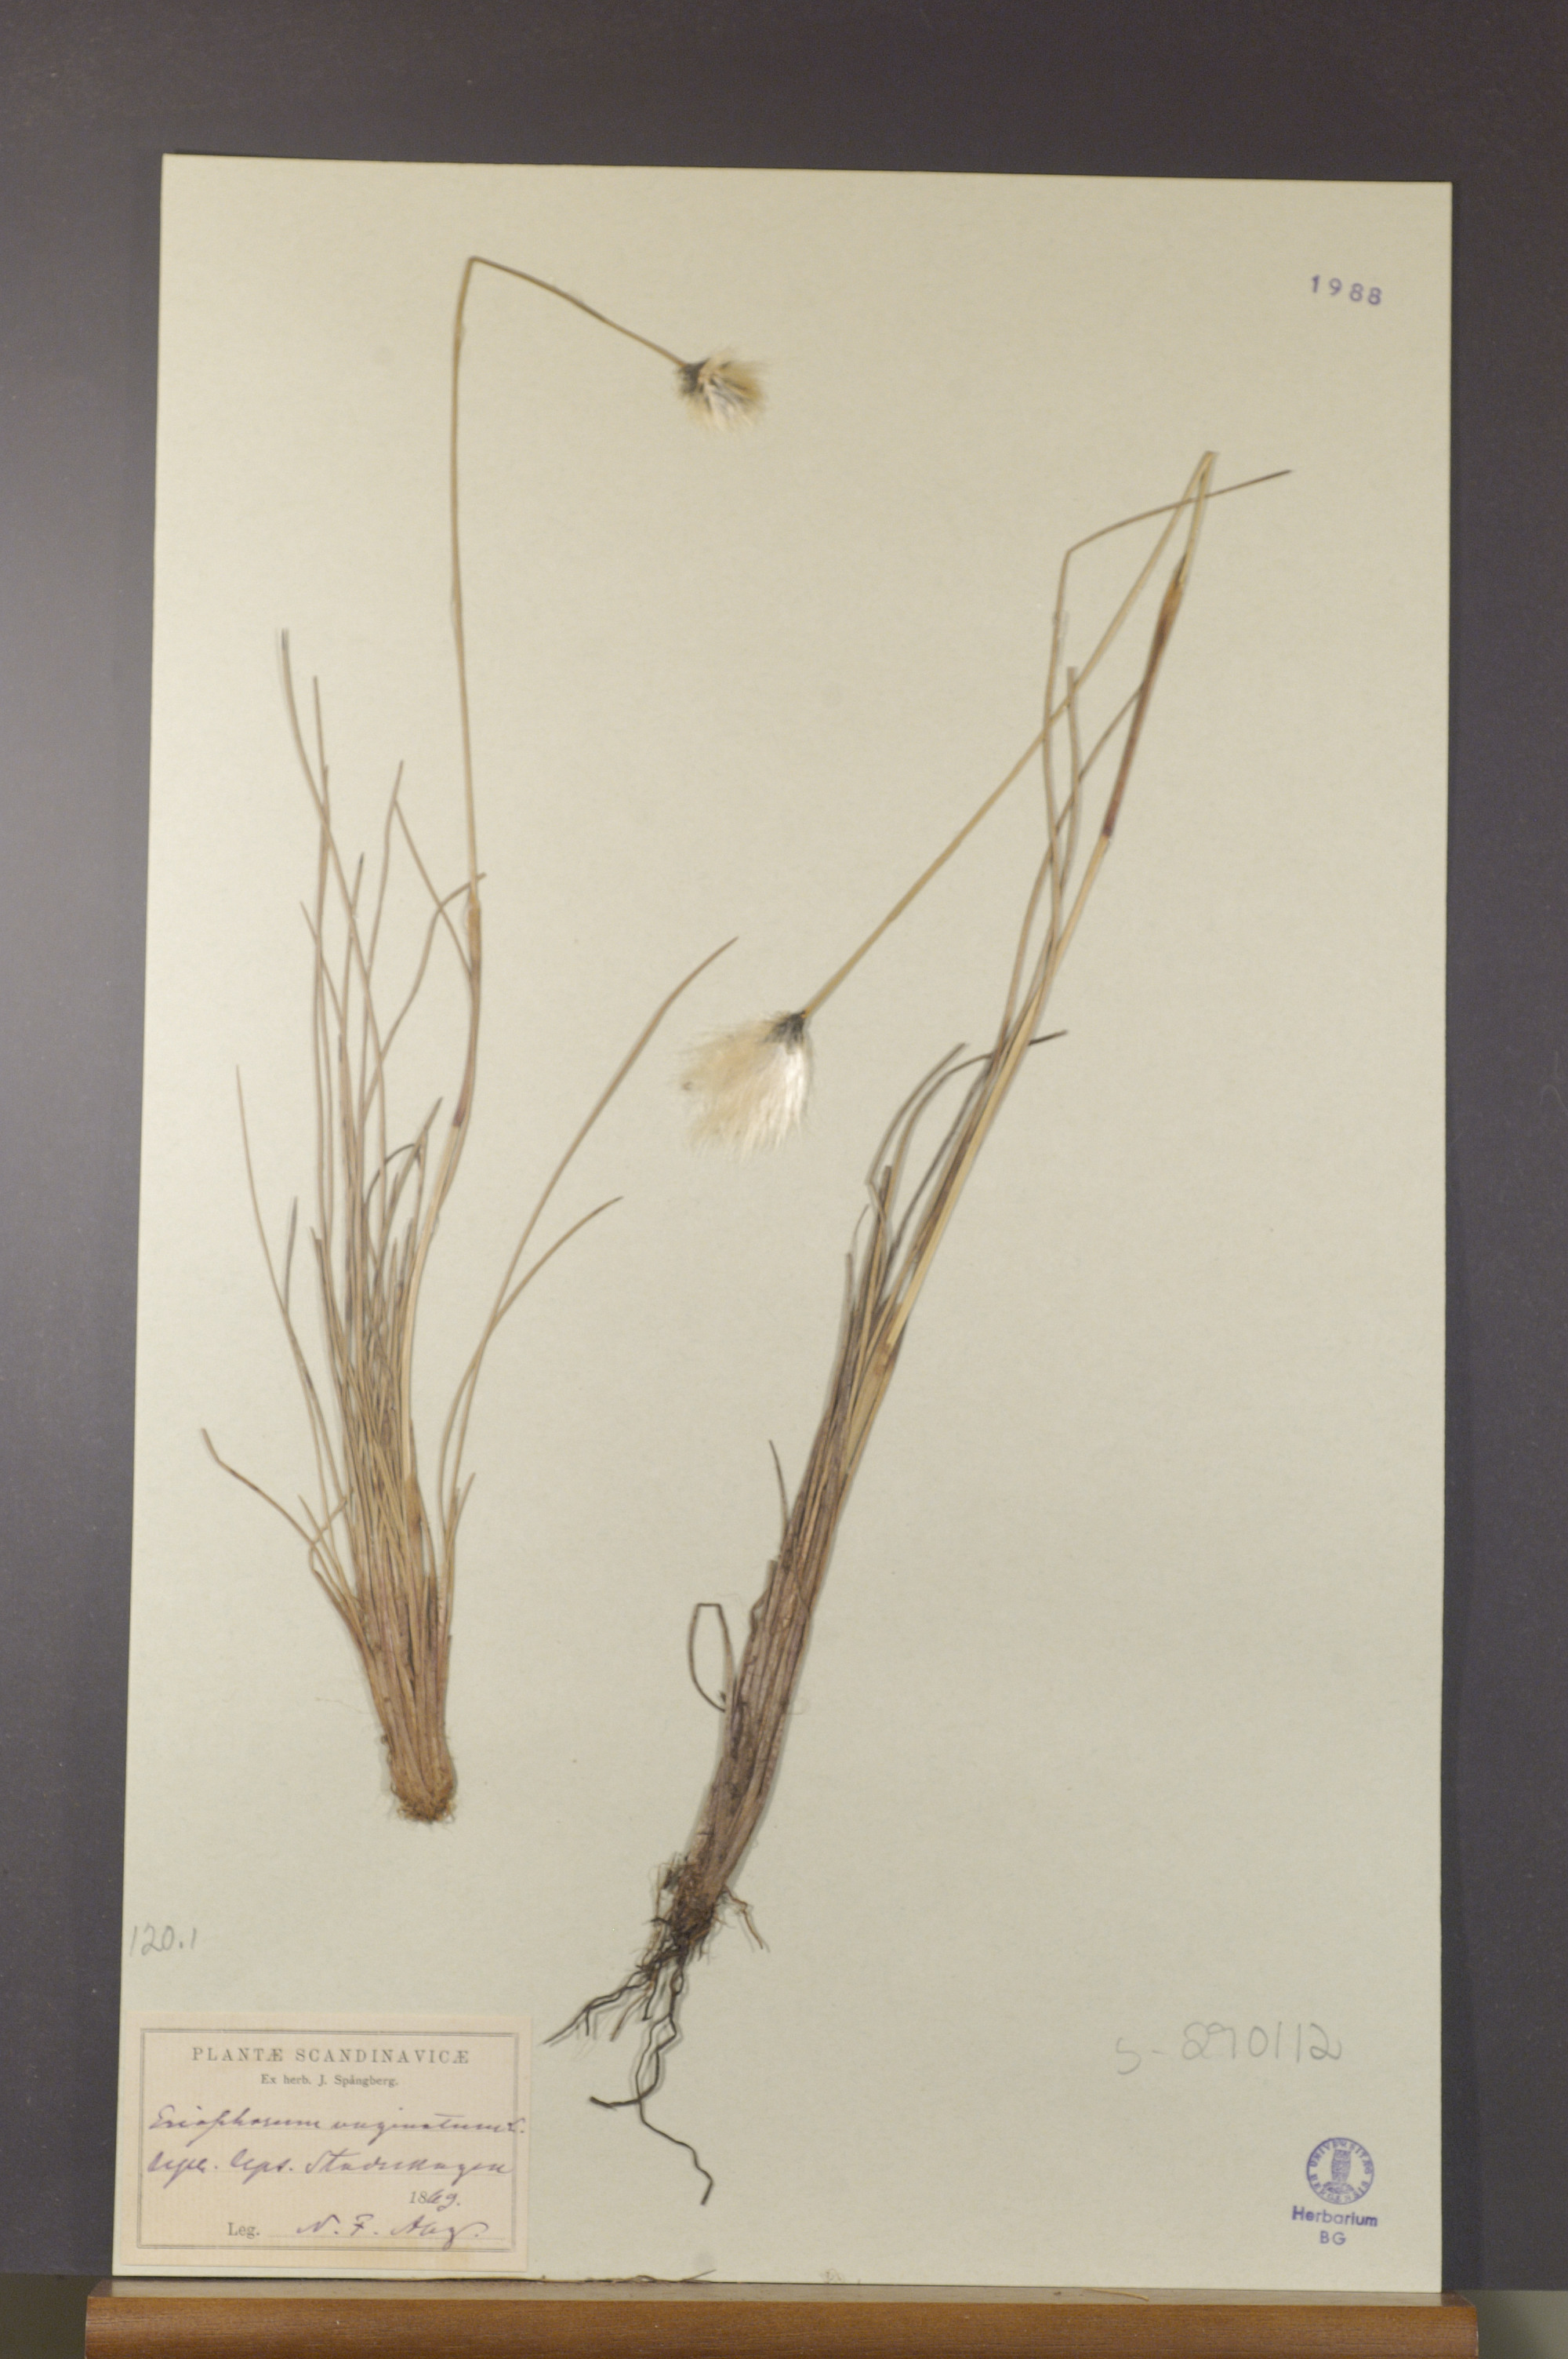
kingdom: Plantae
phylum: Tracheophyta
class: Liliopsida
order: Poales
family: Cyperaceae
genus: Eriophorum
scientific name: Eriophorum vaginatum
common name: Hare's-tail cottongrass
